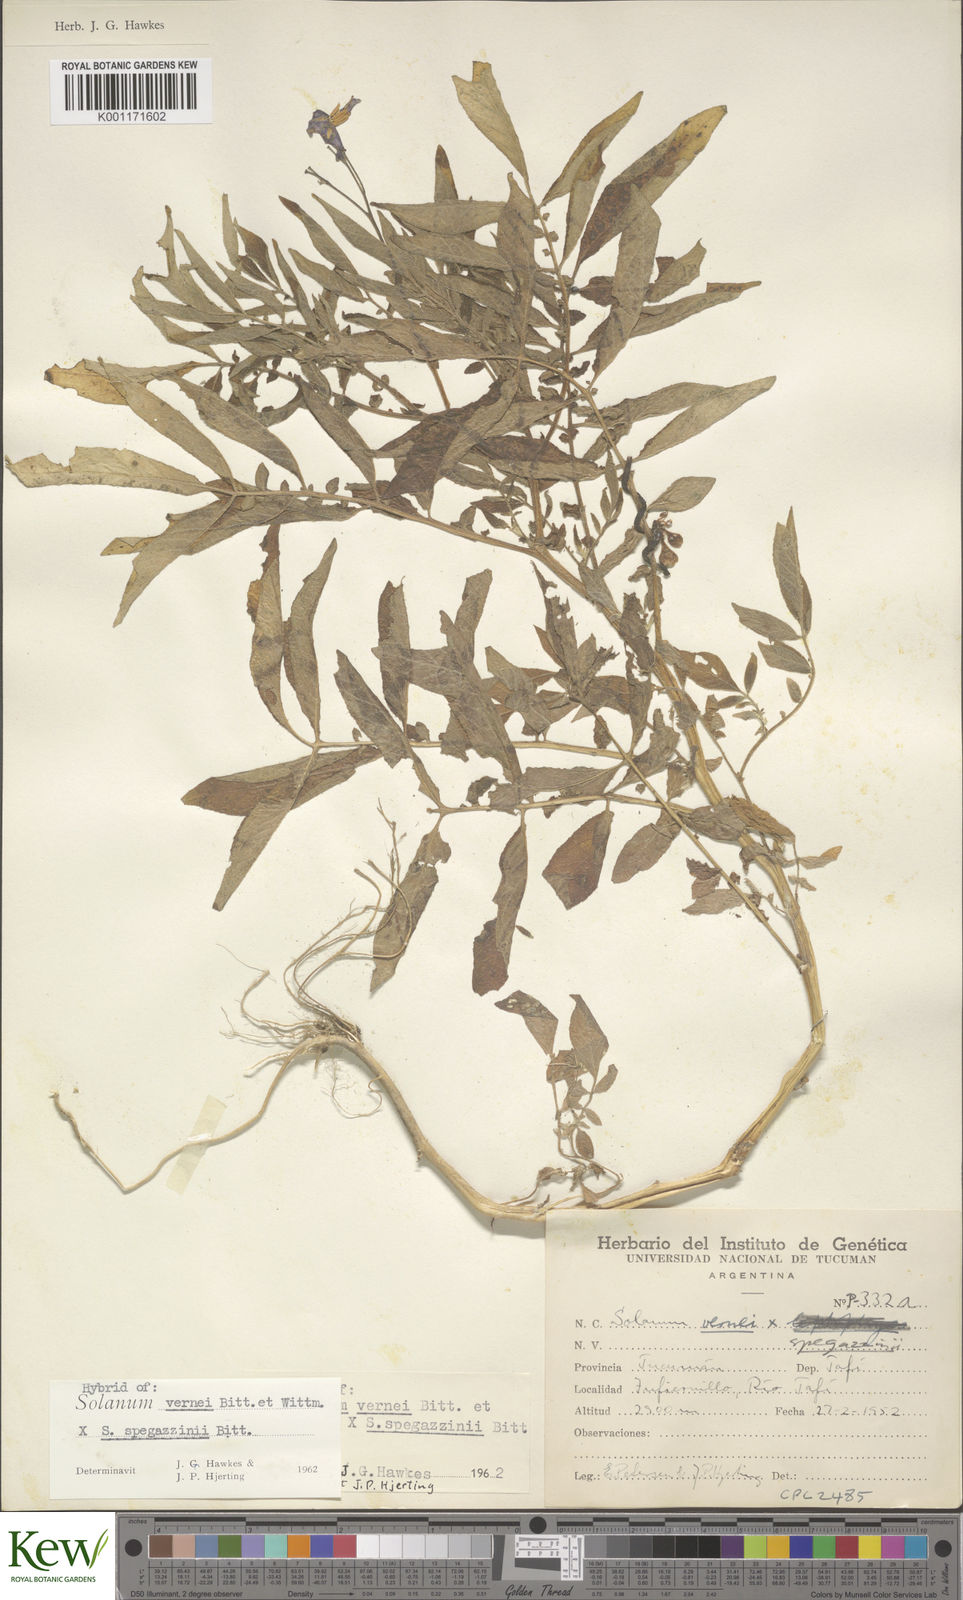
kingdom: Plantae
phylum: Tracheophyta
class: Magnoliopsida
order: Solanales
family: Solanaceae
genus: Solanum
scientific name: Solanum vernei
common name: Purple potato
